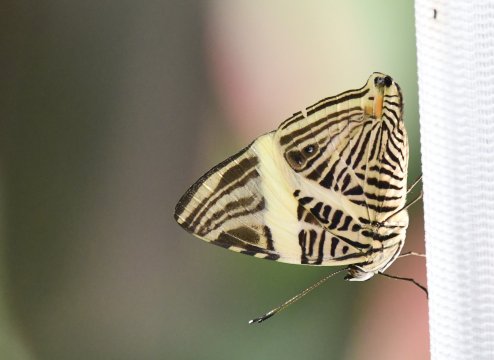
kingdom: Animalia
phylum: Arthropoda
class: Insecta
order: Lepidoptera
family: Nymphalidae
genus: Colobura
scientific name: Colobura dirce
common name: Dirce Beauty
